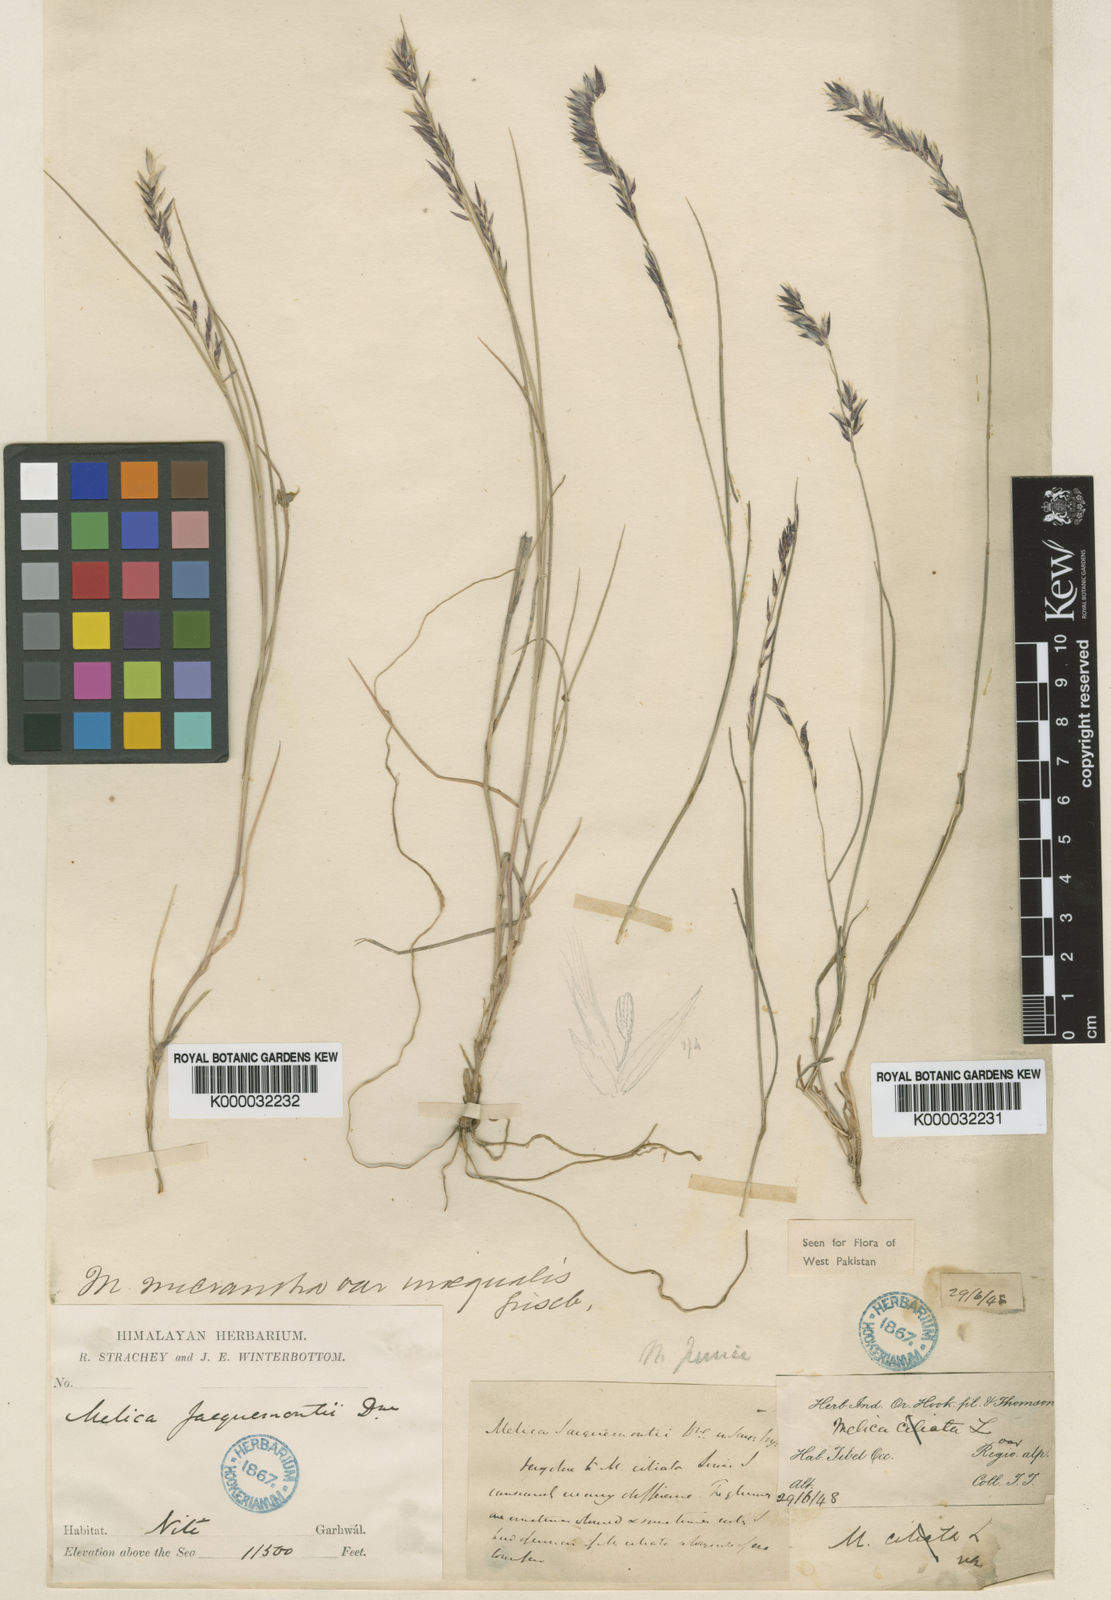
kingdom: Plantae
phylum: Tracheophyta
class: Liliopsida
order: Poales
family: Poaceae
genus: Melica
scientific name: Melica persica
